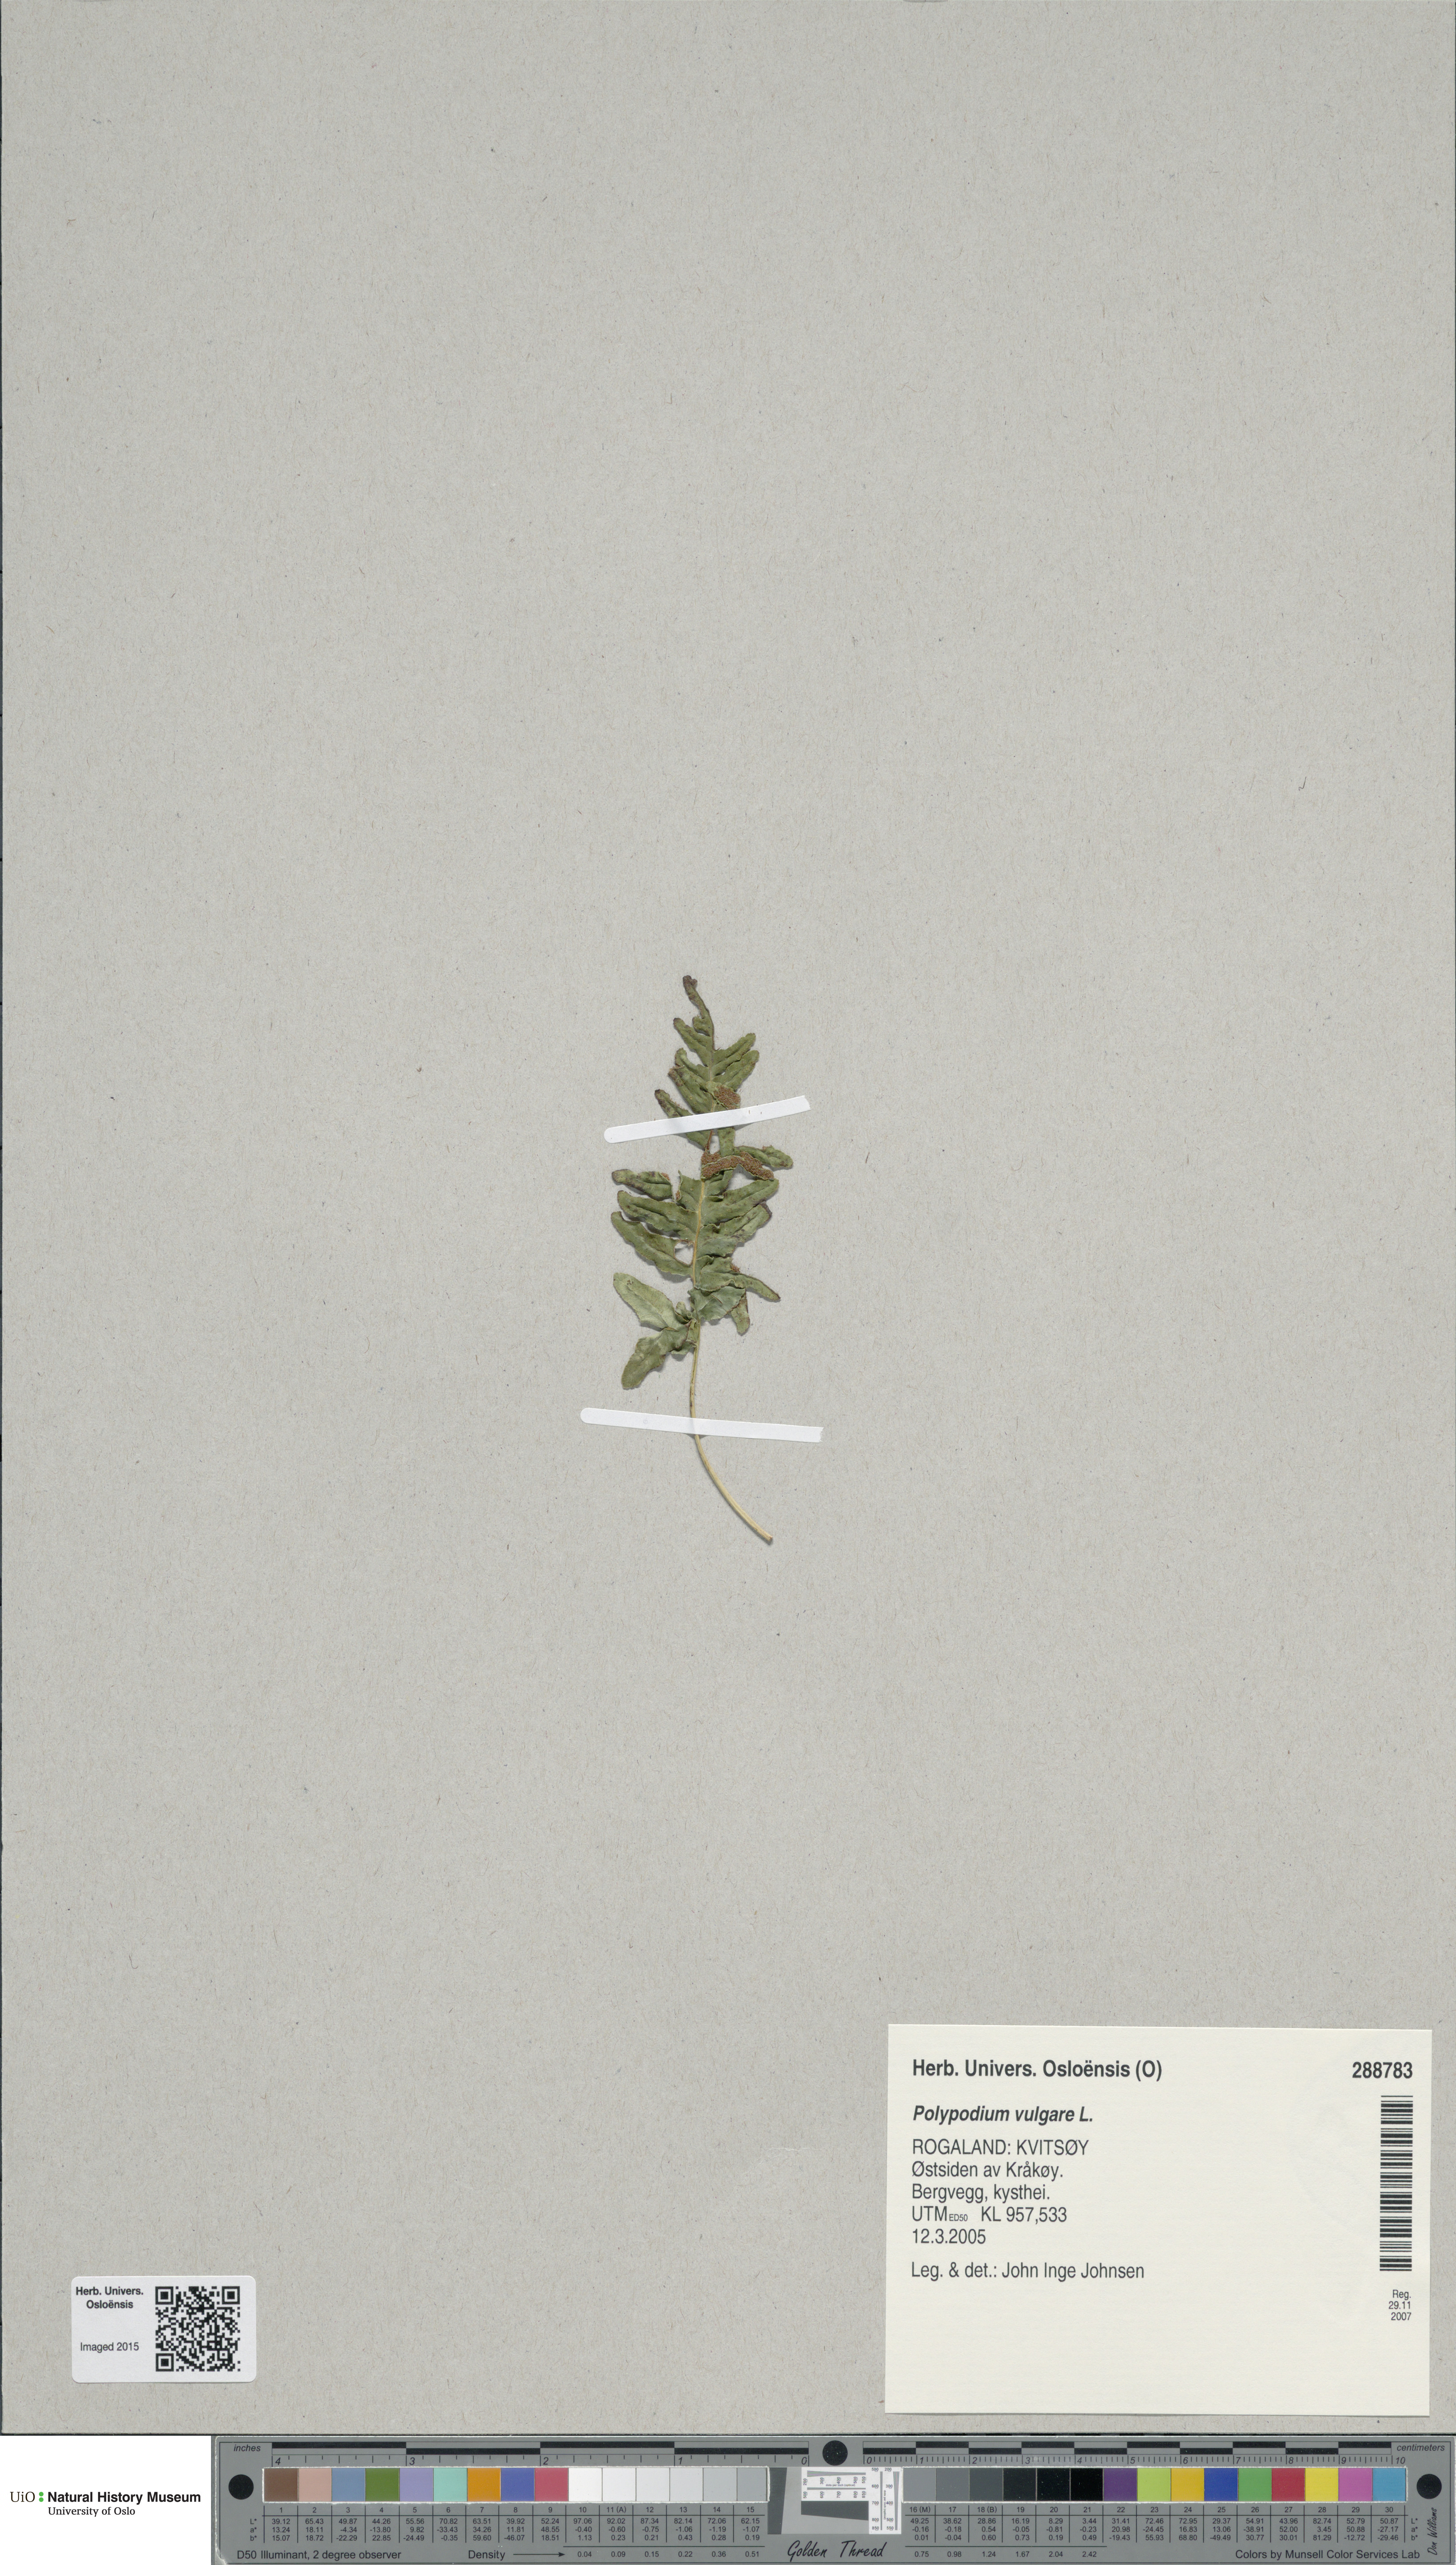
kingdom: Plantae
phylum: Tracheophyta
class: Polypodiopsida
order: Polypodiales
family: Polypodiaceae
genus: Polypodium
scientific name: Polypodium vulgare
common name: Common polypody
